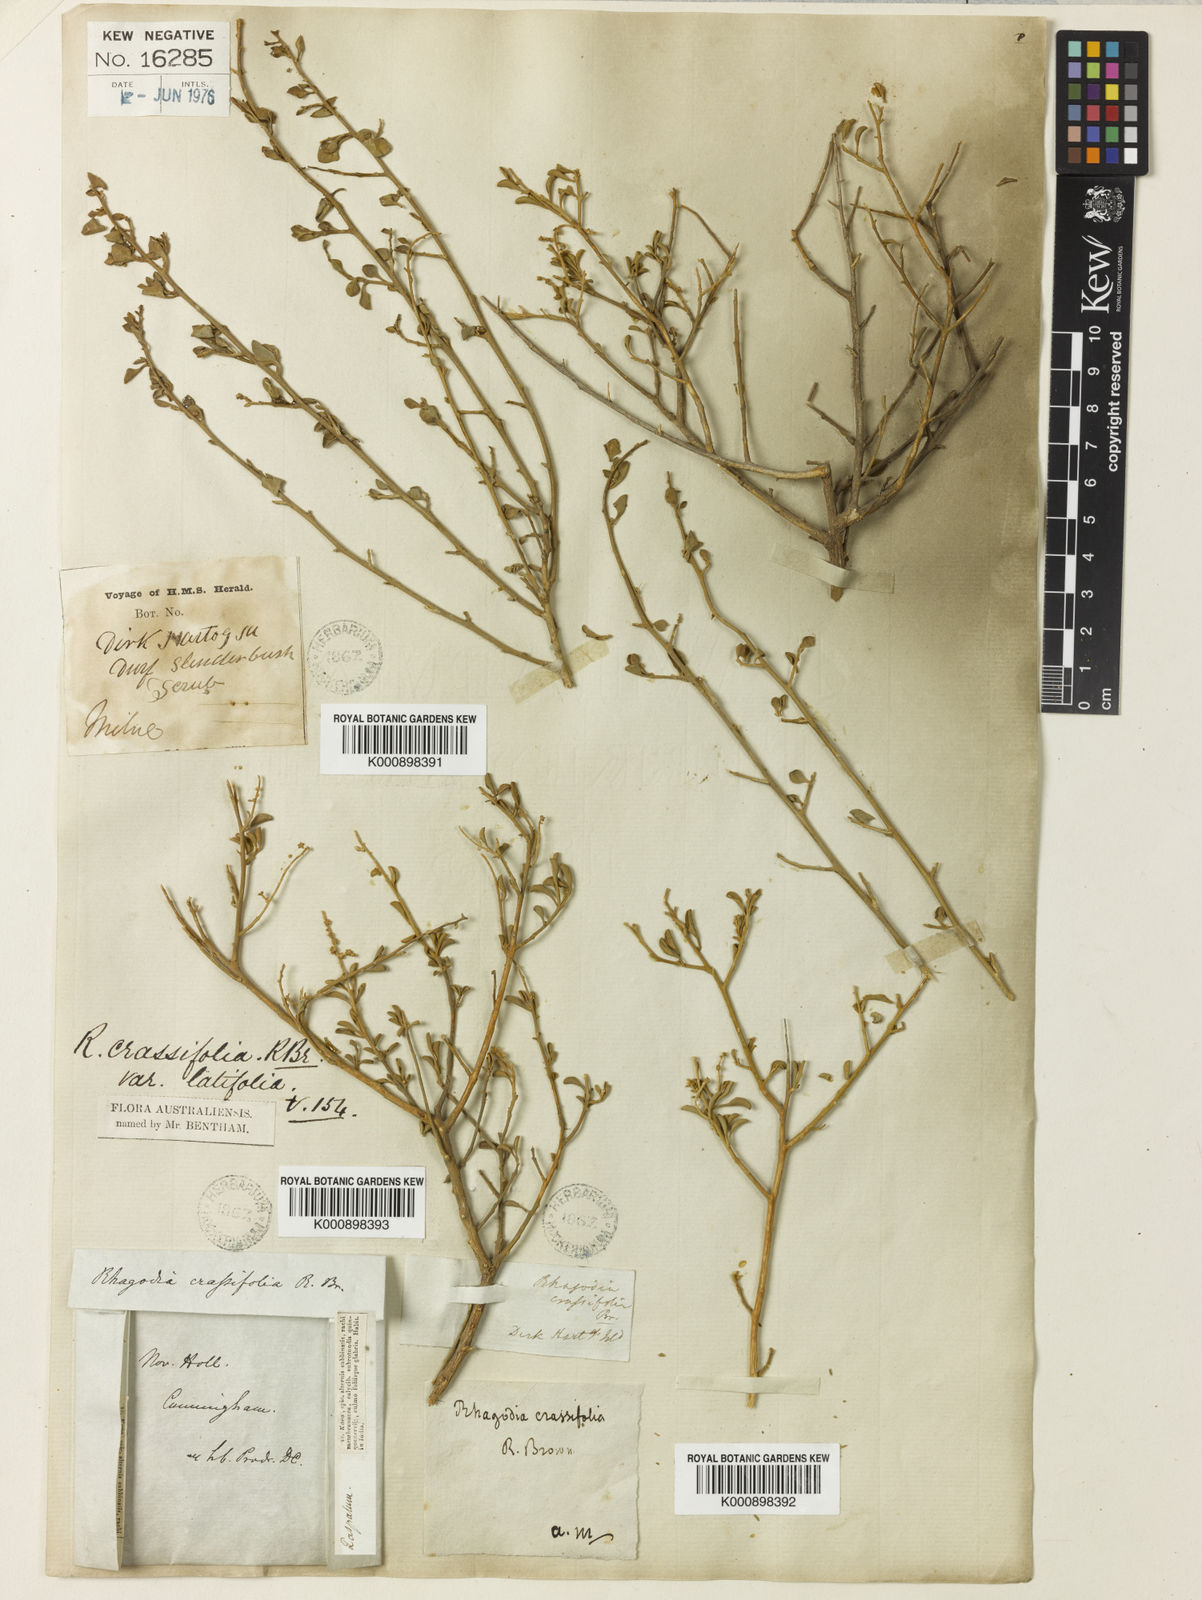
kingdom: Plantae
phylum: Tracheophyta
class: Magnoliopsida
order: Caryophyllales
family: Amaranthaceae
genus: Chenopodium
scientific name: Chenopodium benthamii
